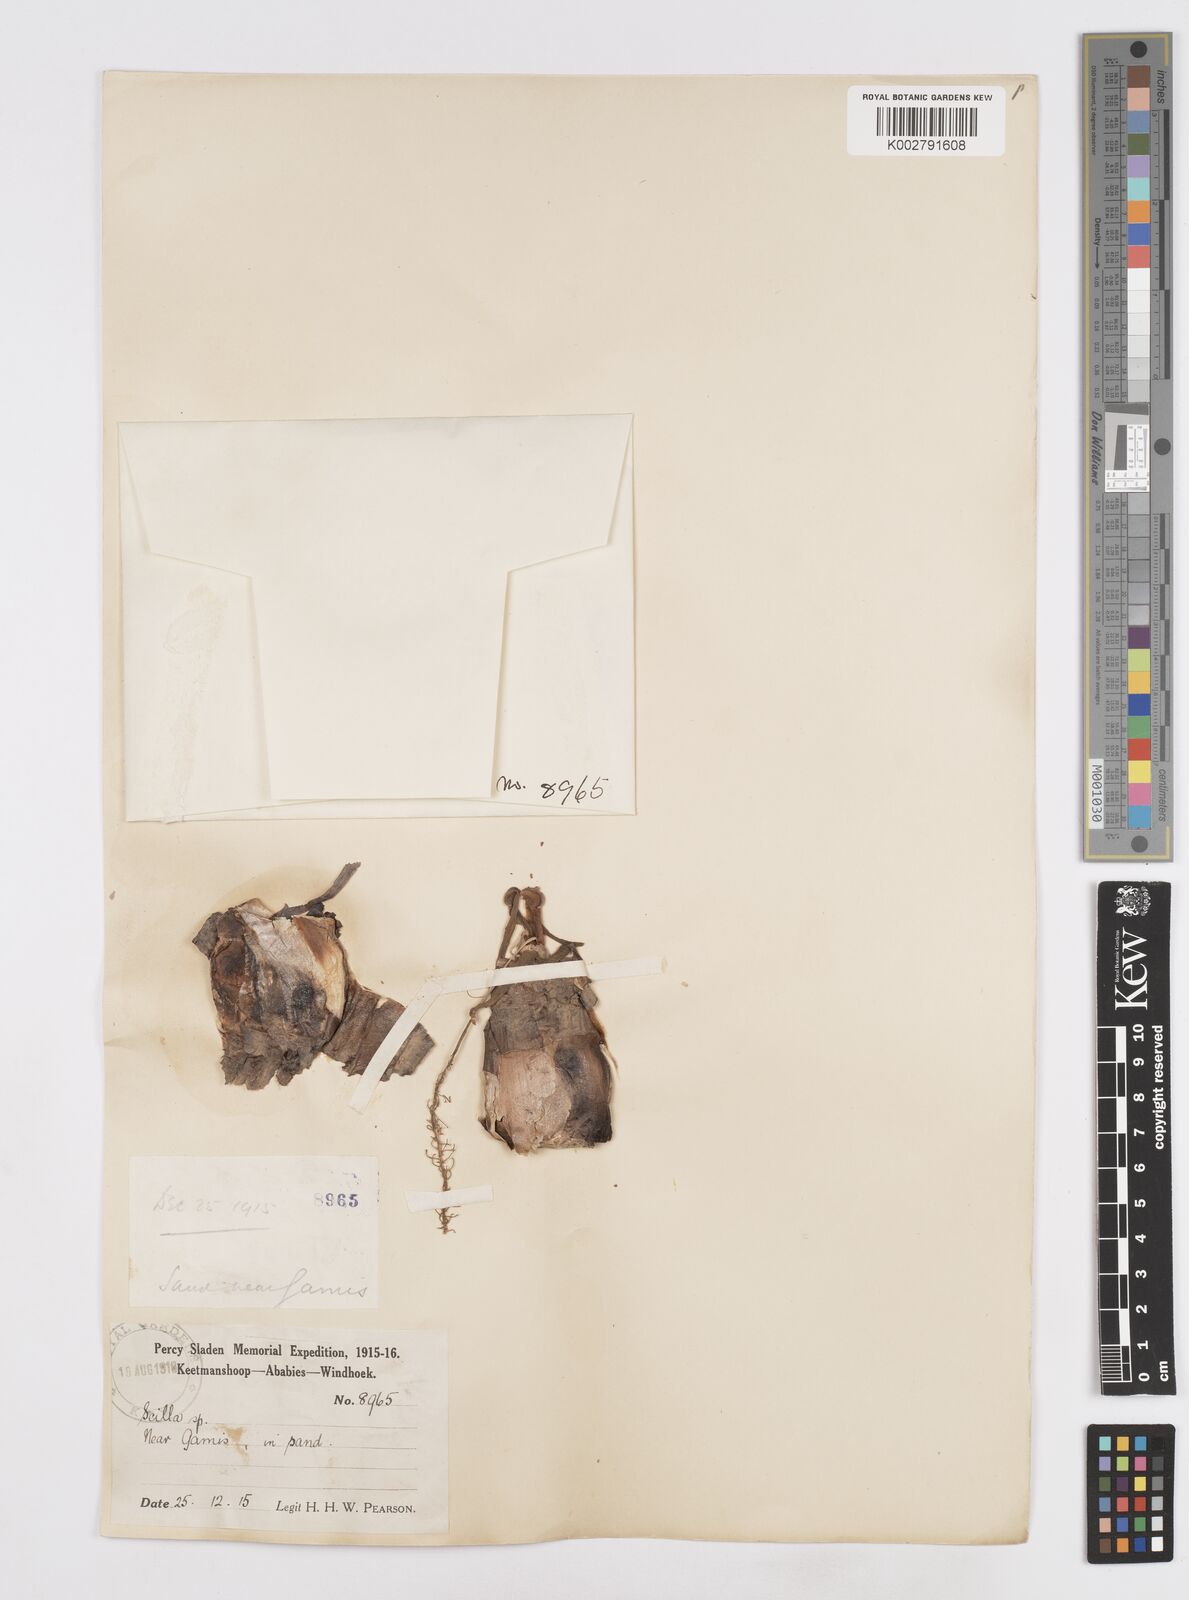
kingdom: Plantae
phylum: Tracheophyta
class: Liliopsida
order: Asparagales
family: Asparagaceae
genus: Scilla
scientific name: Scilla
